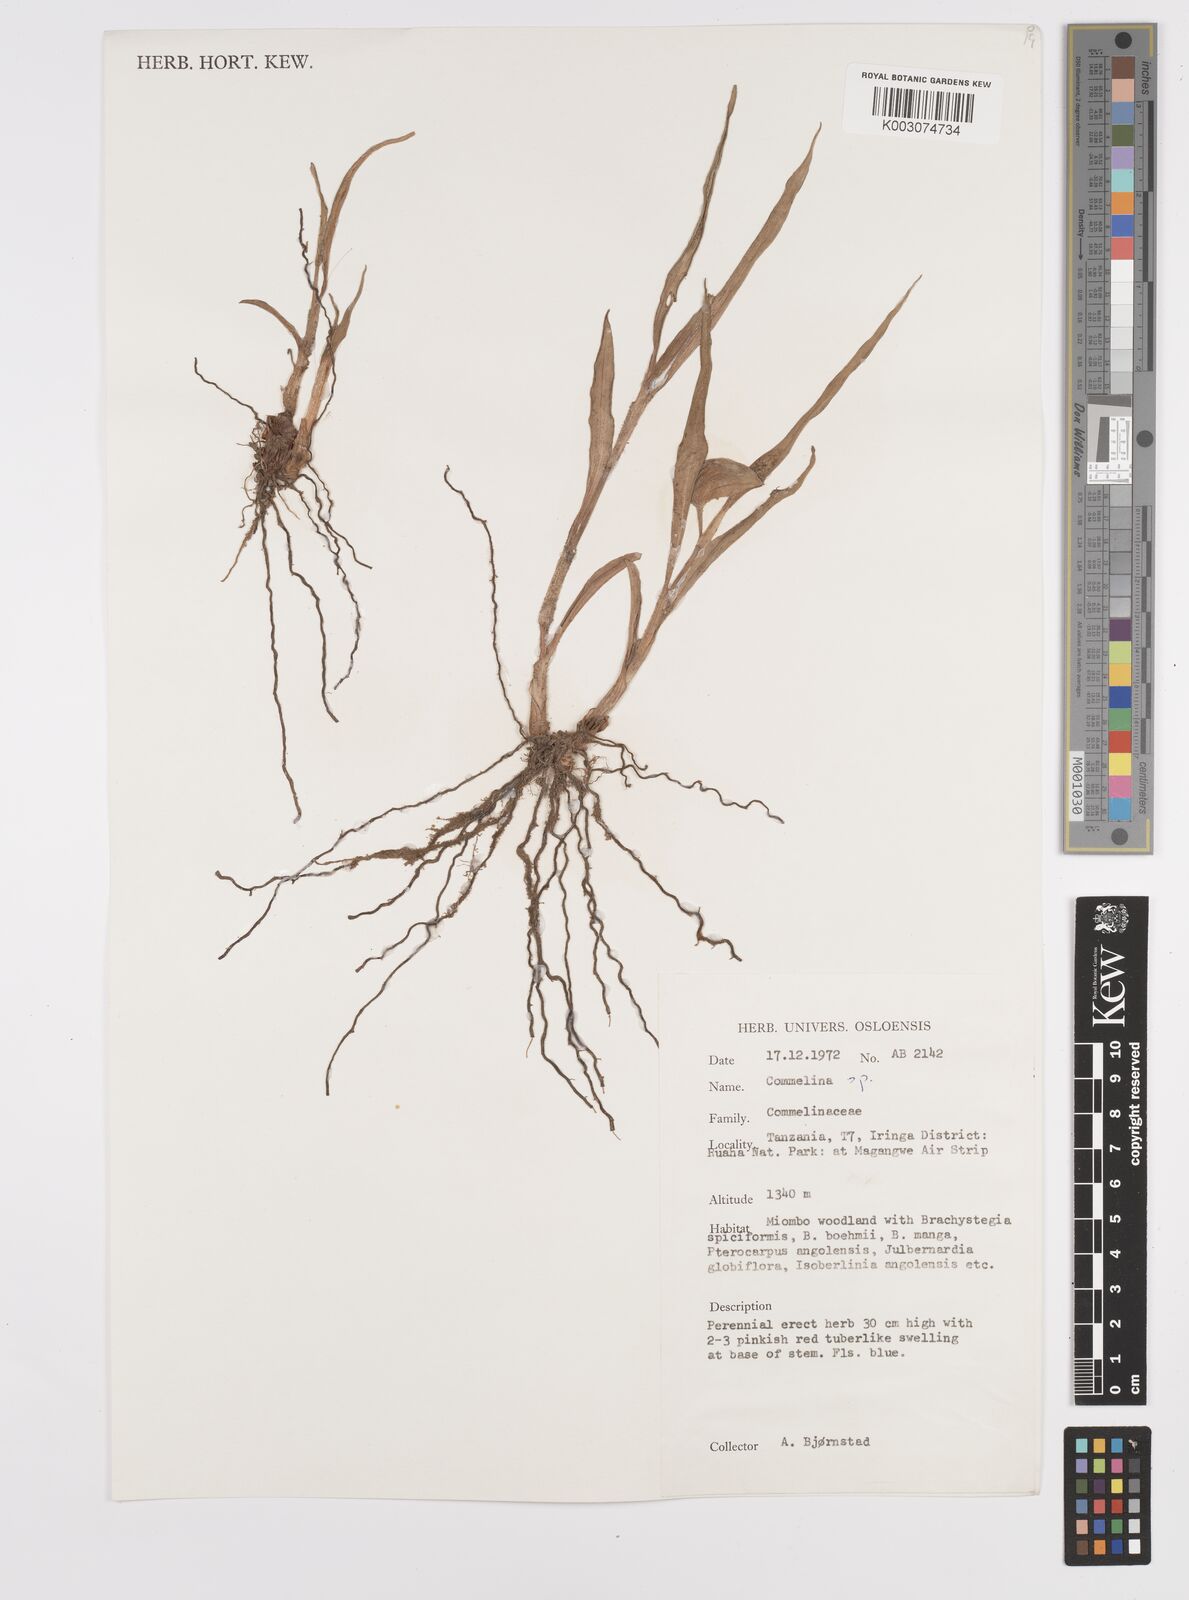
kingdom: Plantae
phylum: Tracheophyta
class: Liliopsida
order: Commelinales
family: Commelinaceae
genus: Commelina
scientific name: Commelina bracteosa
